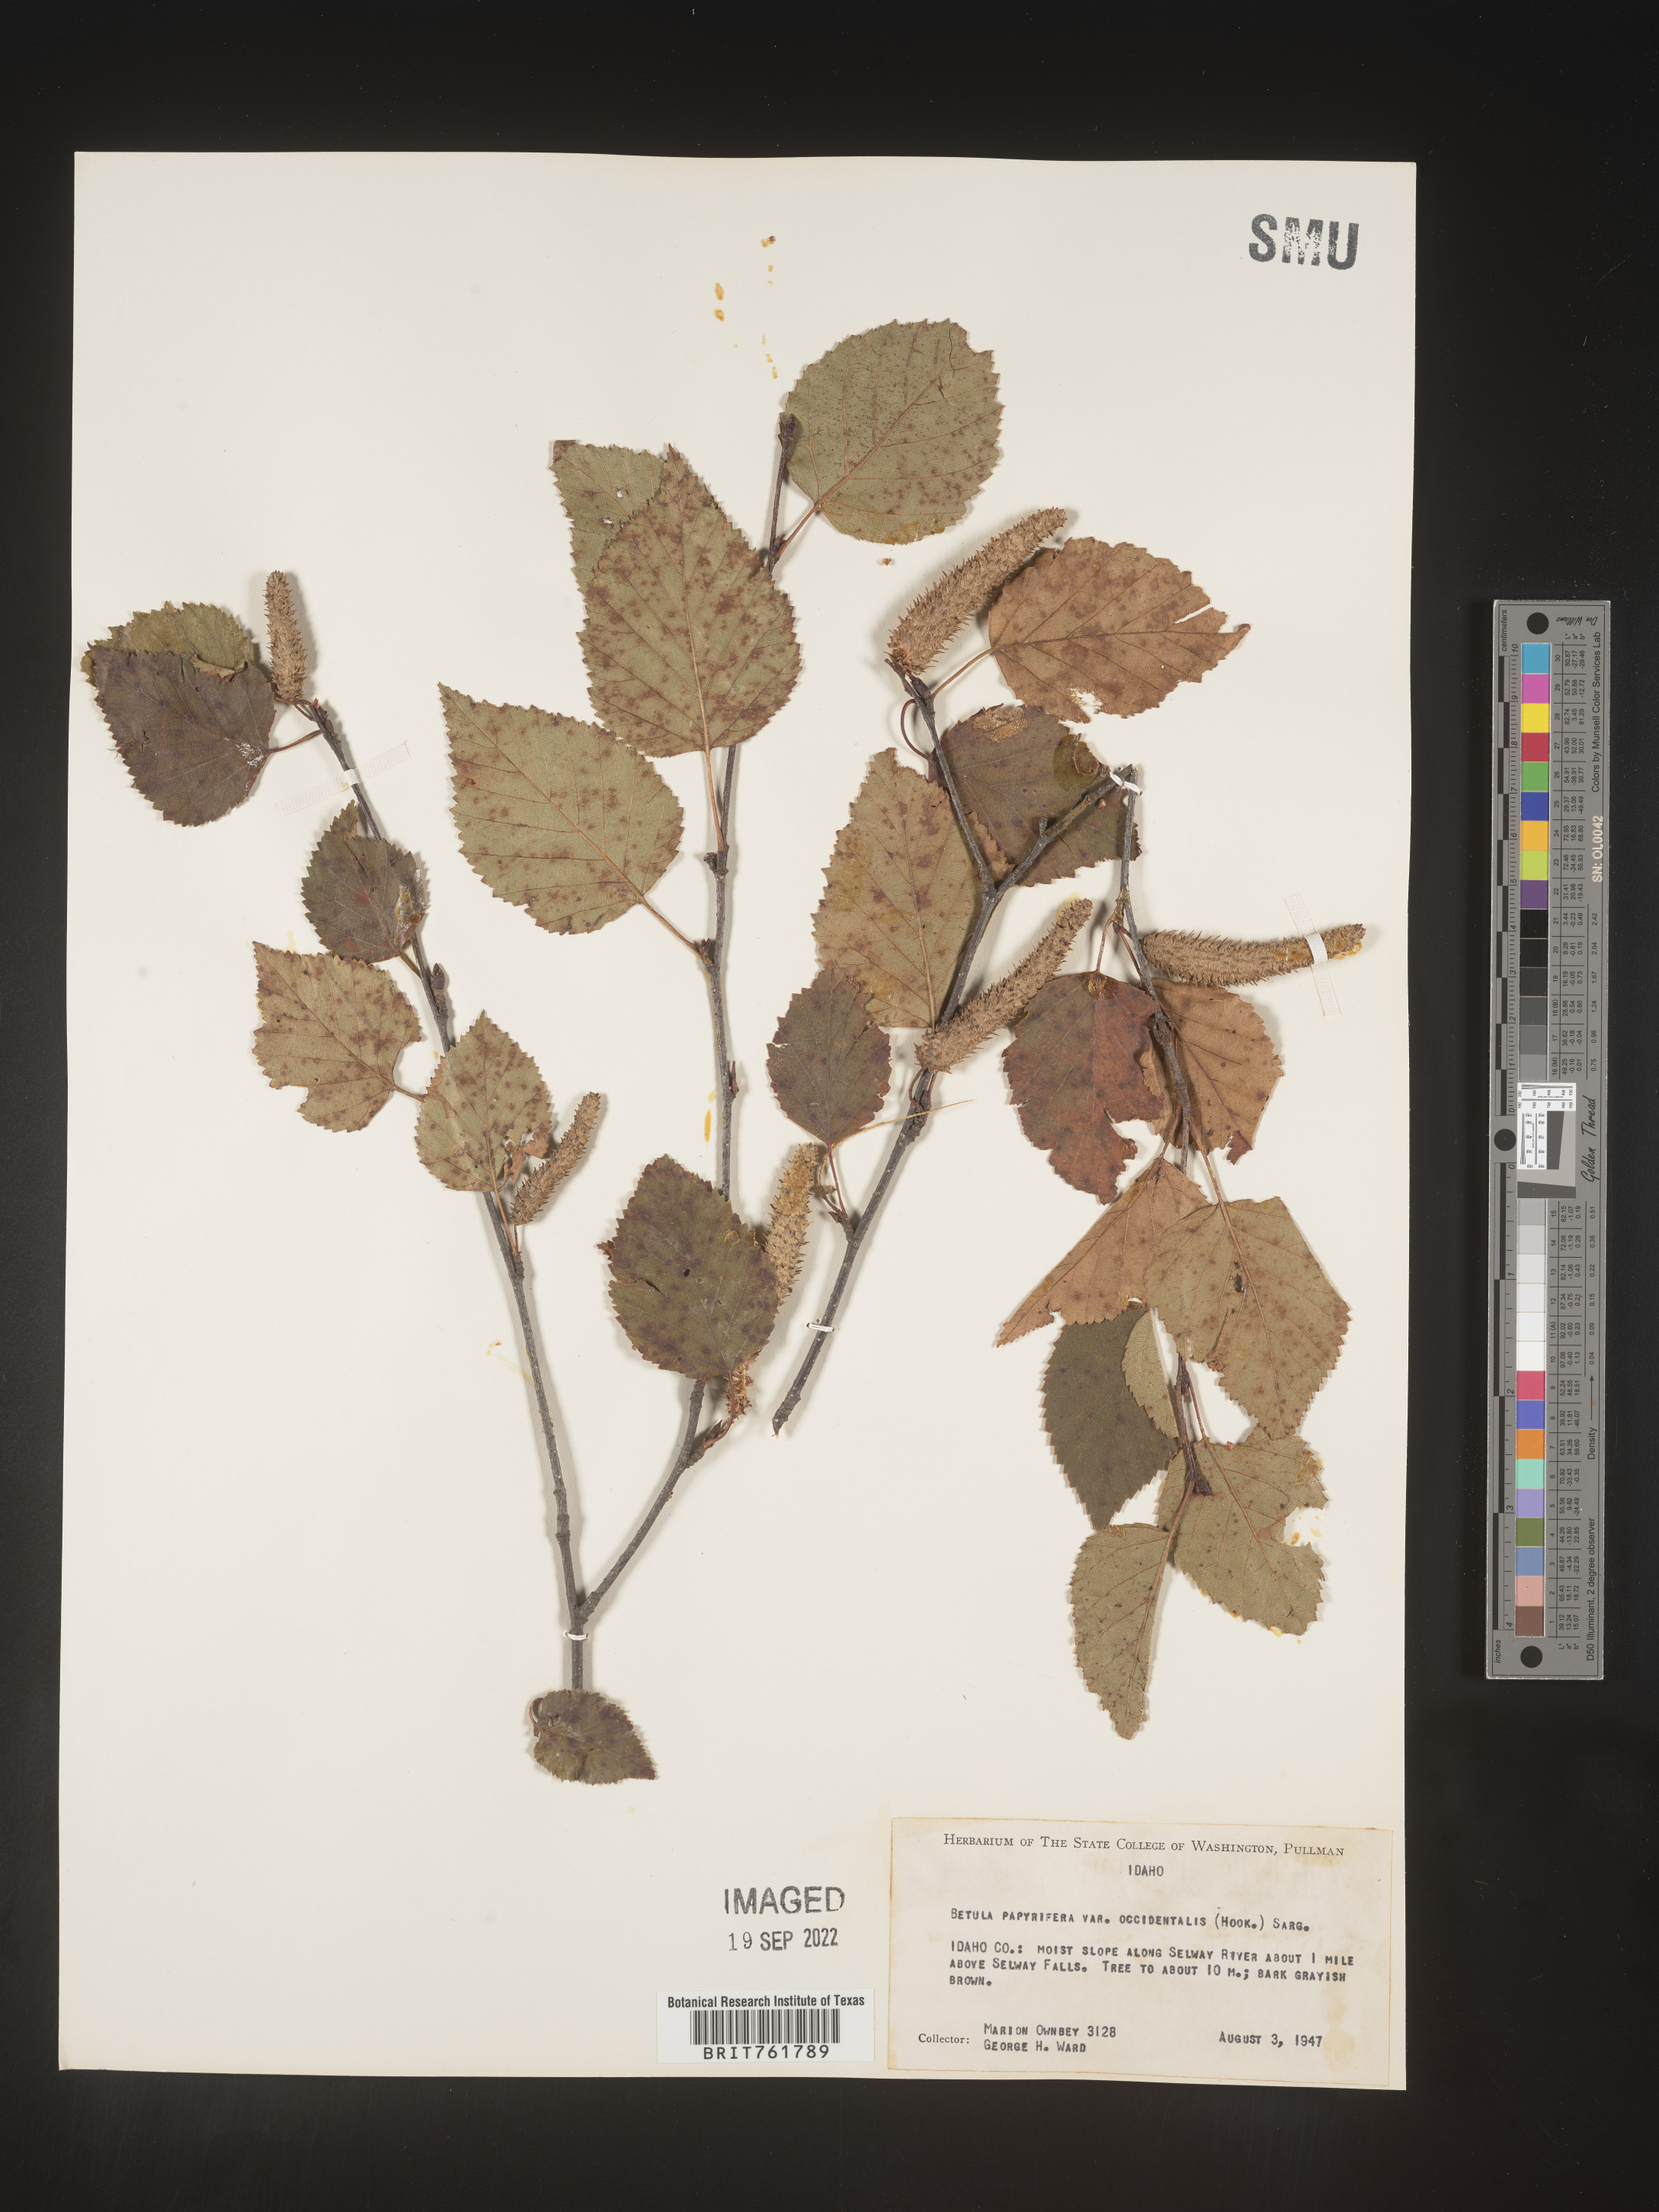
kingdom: Plantae
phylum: Tracheophyta
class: Magnoliopsida
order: Fagales
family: Betulaceae
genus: Betula
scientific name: Betula occidentalis
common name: River birch
